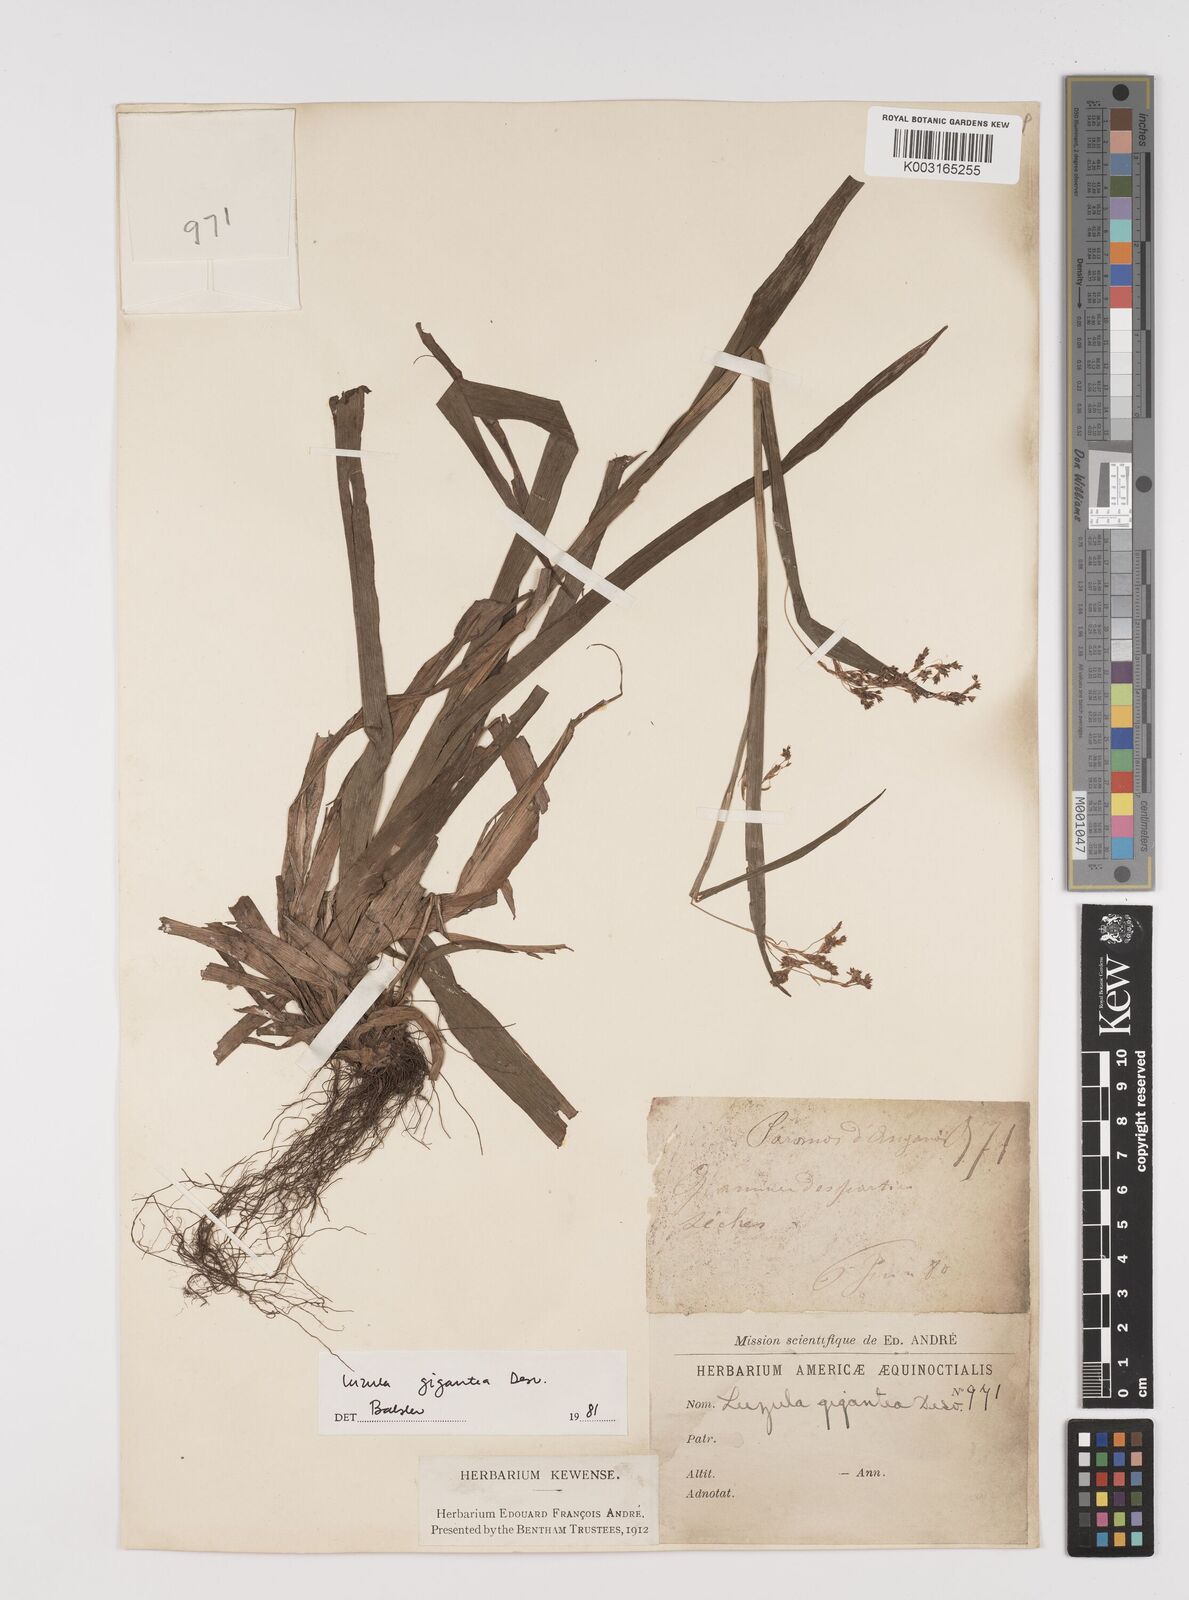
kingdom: Plantae
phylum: Tracheophyta
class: Liliopsida
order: Poales
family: Juncaceae
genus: Luzula
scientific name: Luzula gigantea
